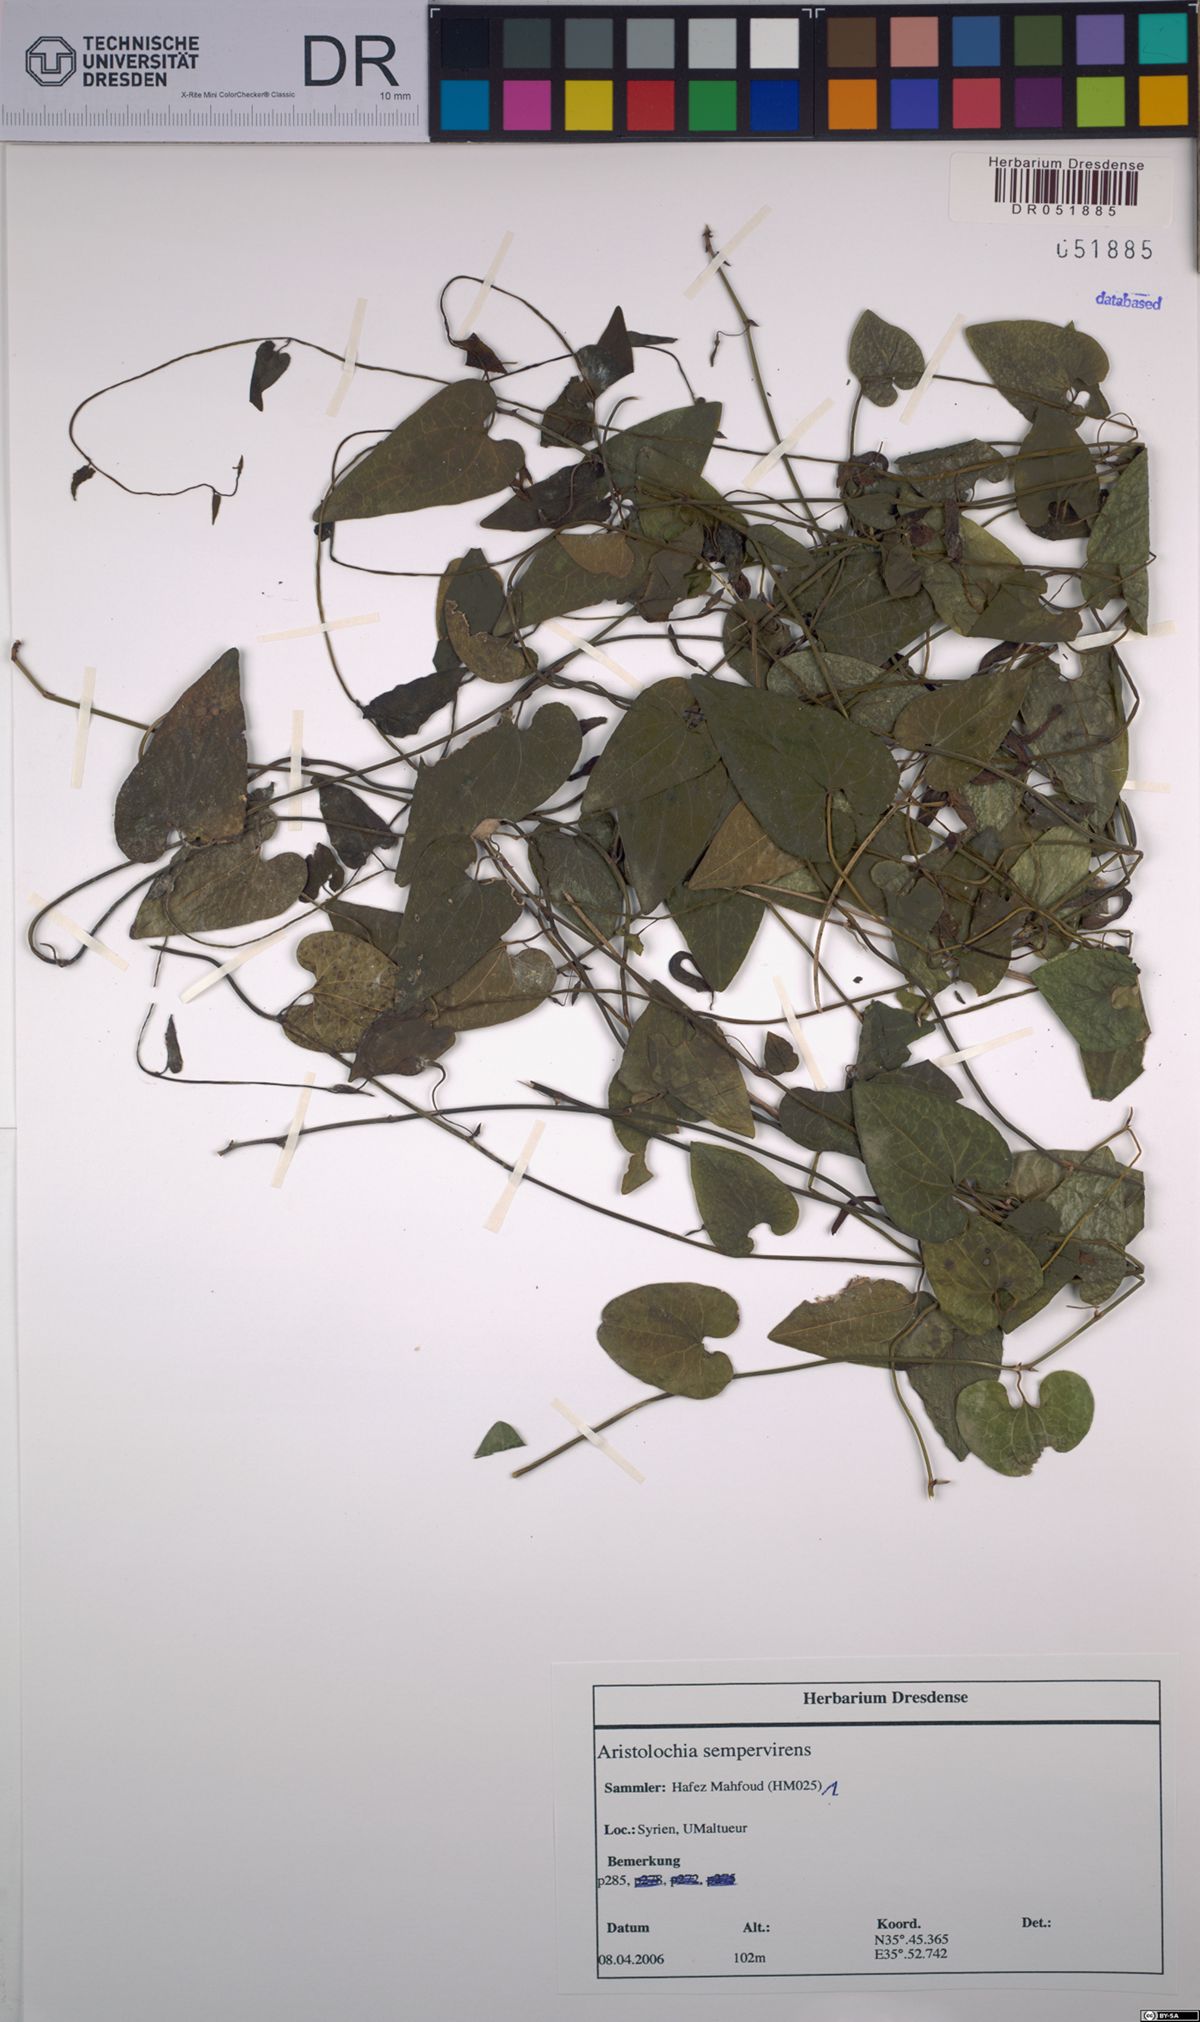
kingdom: Plantae
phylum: Tracheophyta
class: Magnoliopsida
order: Piperales
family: Aristolochiaceae
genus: Aristolochia
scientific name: Aristolochia sempervirens
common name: Long birthwort
